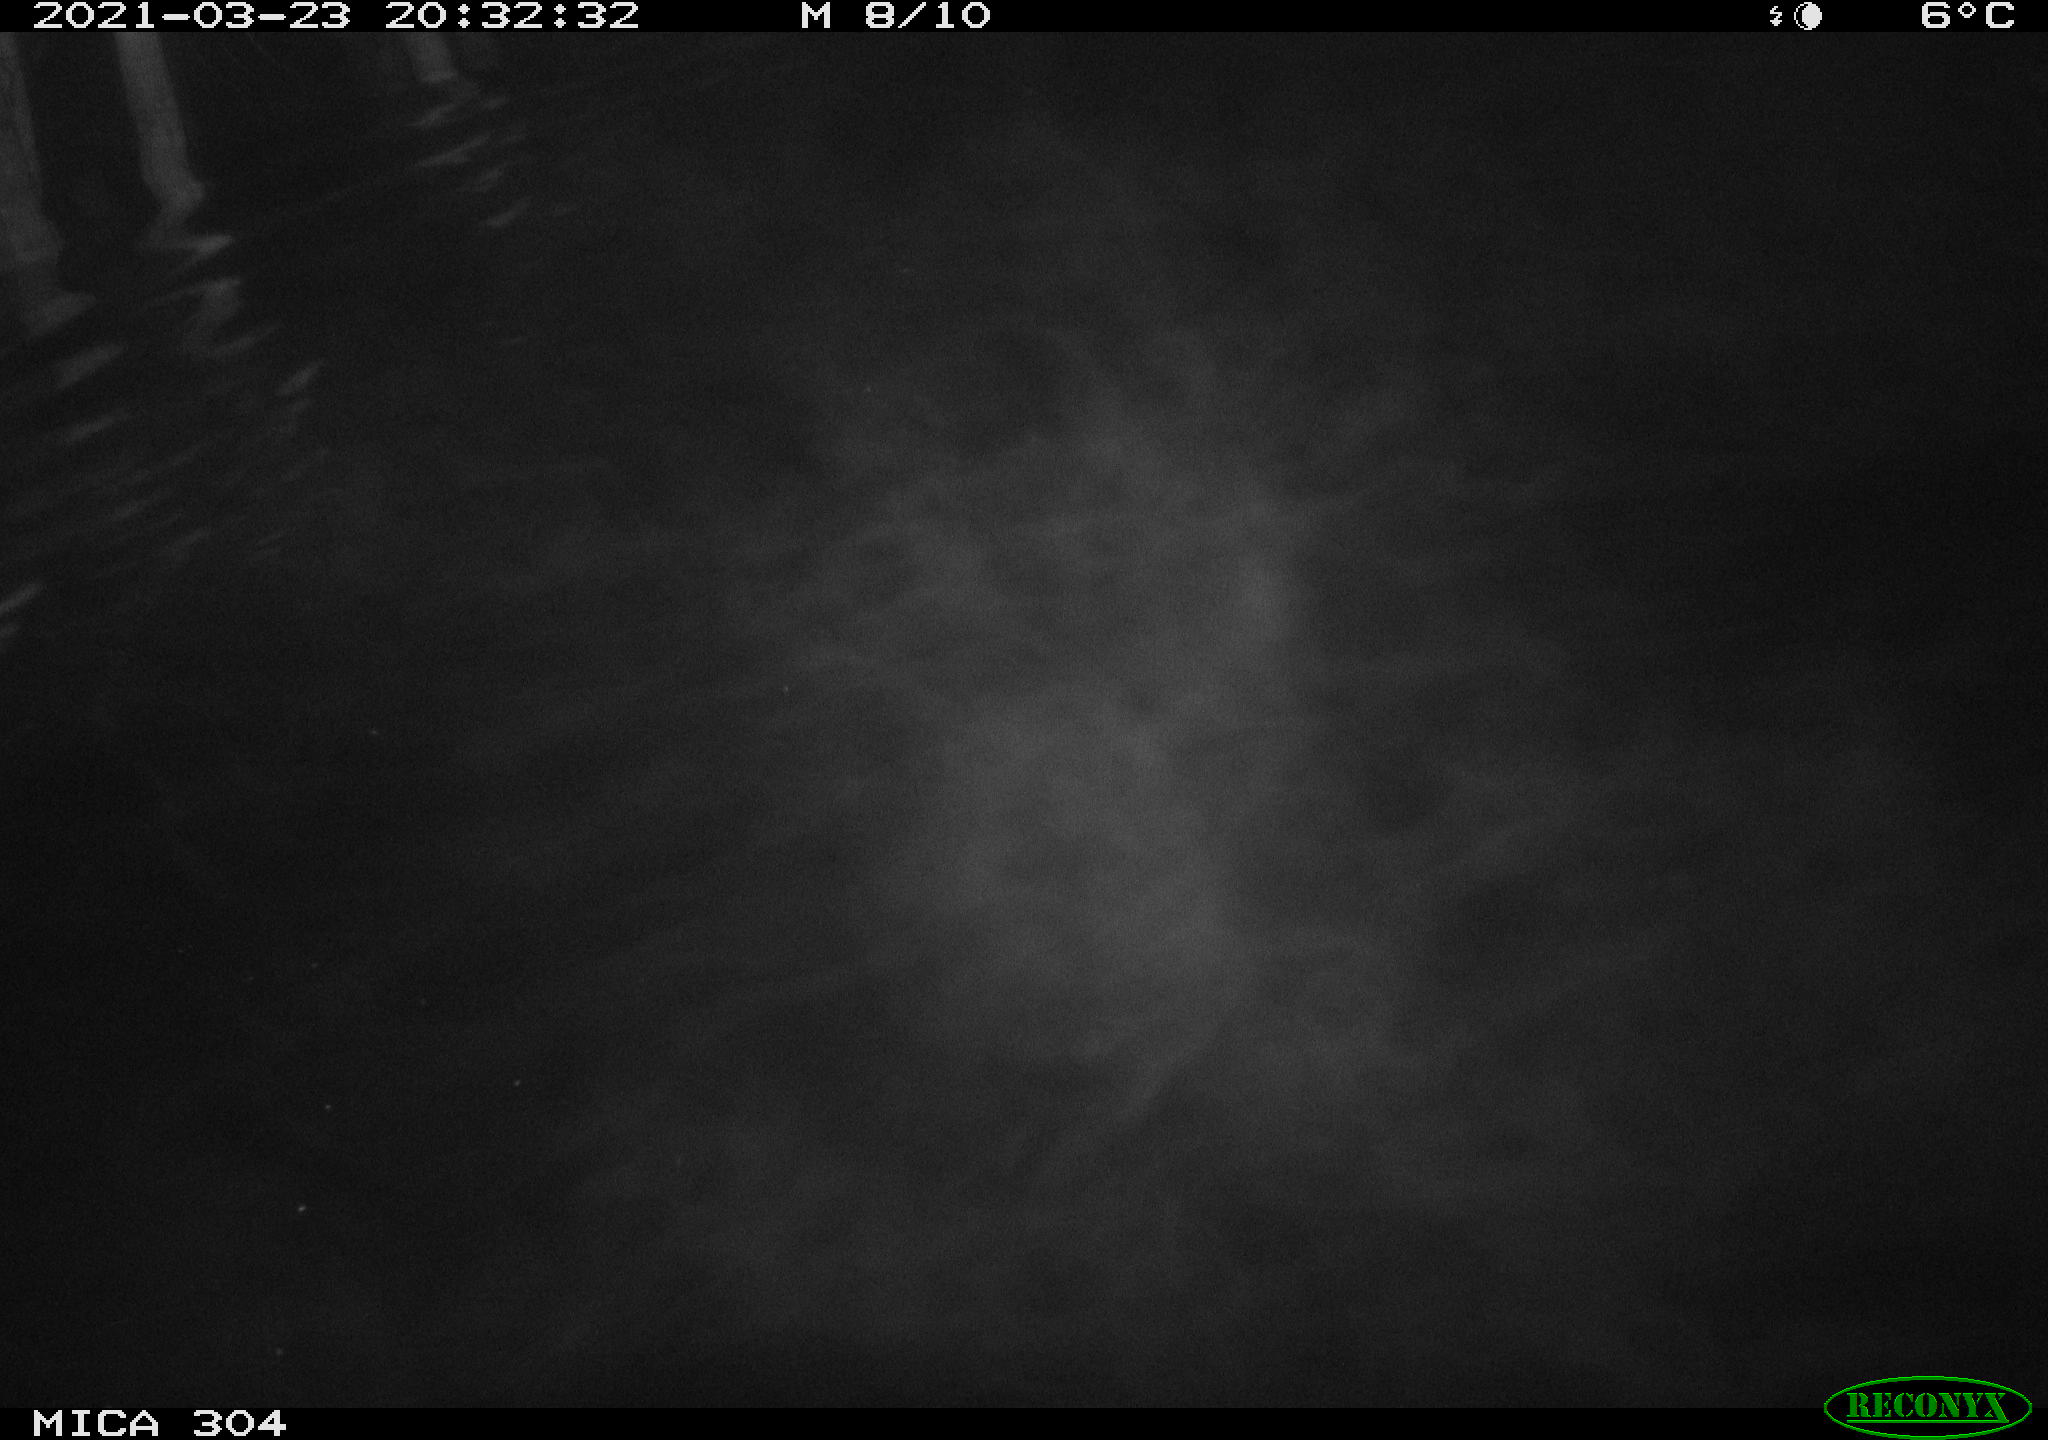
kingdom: Animalia
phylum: Chordata
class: Mammalia
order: Rodentia
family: Cricetidae
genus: Ondatra
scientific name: Ondatra zibethicus
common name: Muskrat
